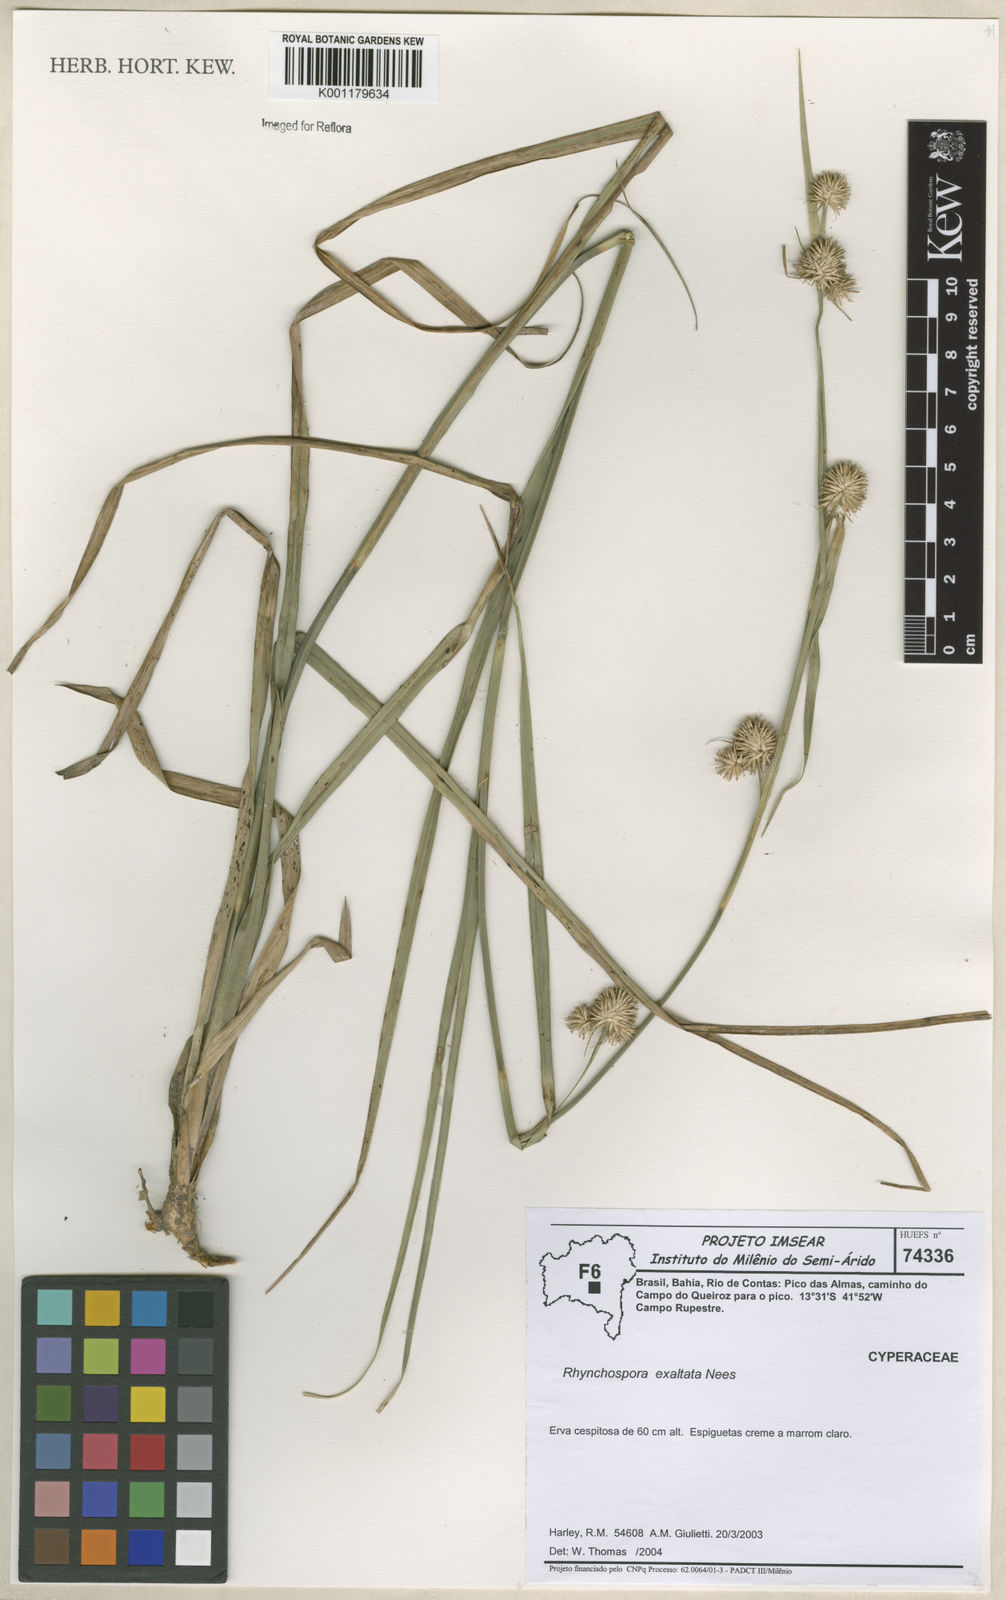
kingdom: Plantae
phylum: Tracheophyta
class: Liliopsida
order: Poales
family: Cyperaceae
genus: Rhynchospora
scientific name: Rhynchospora exaltata
